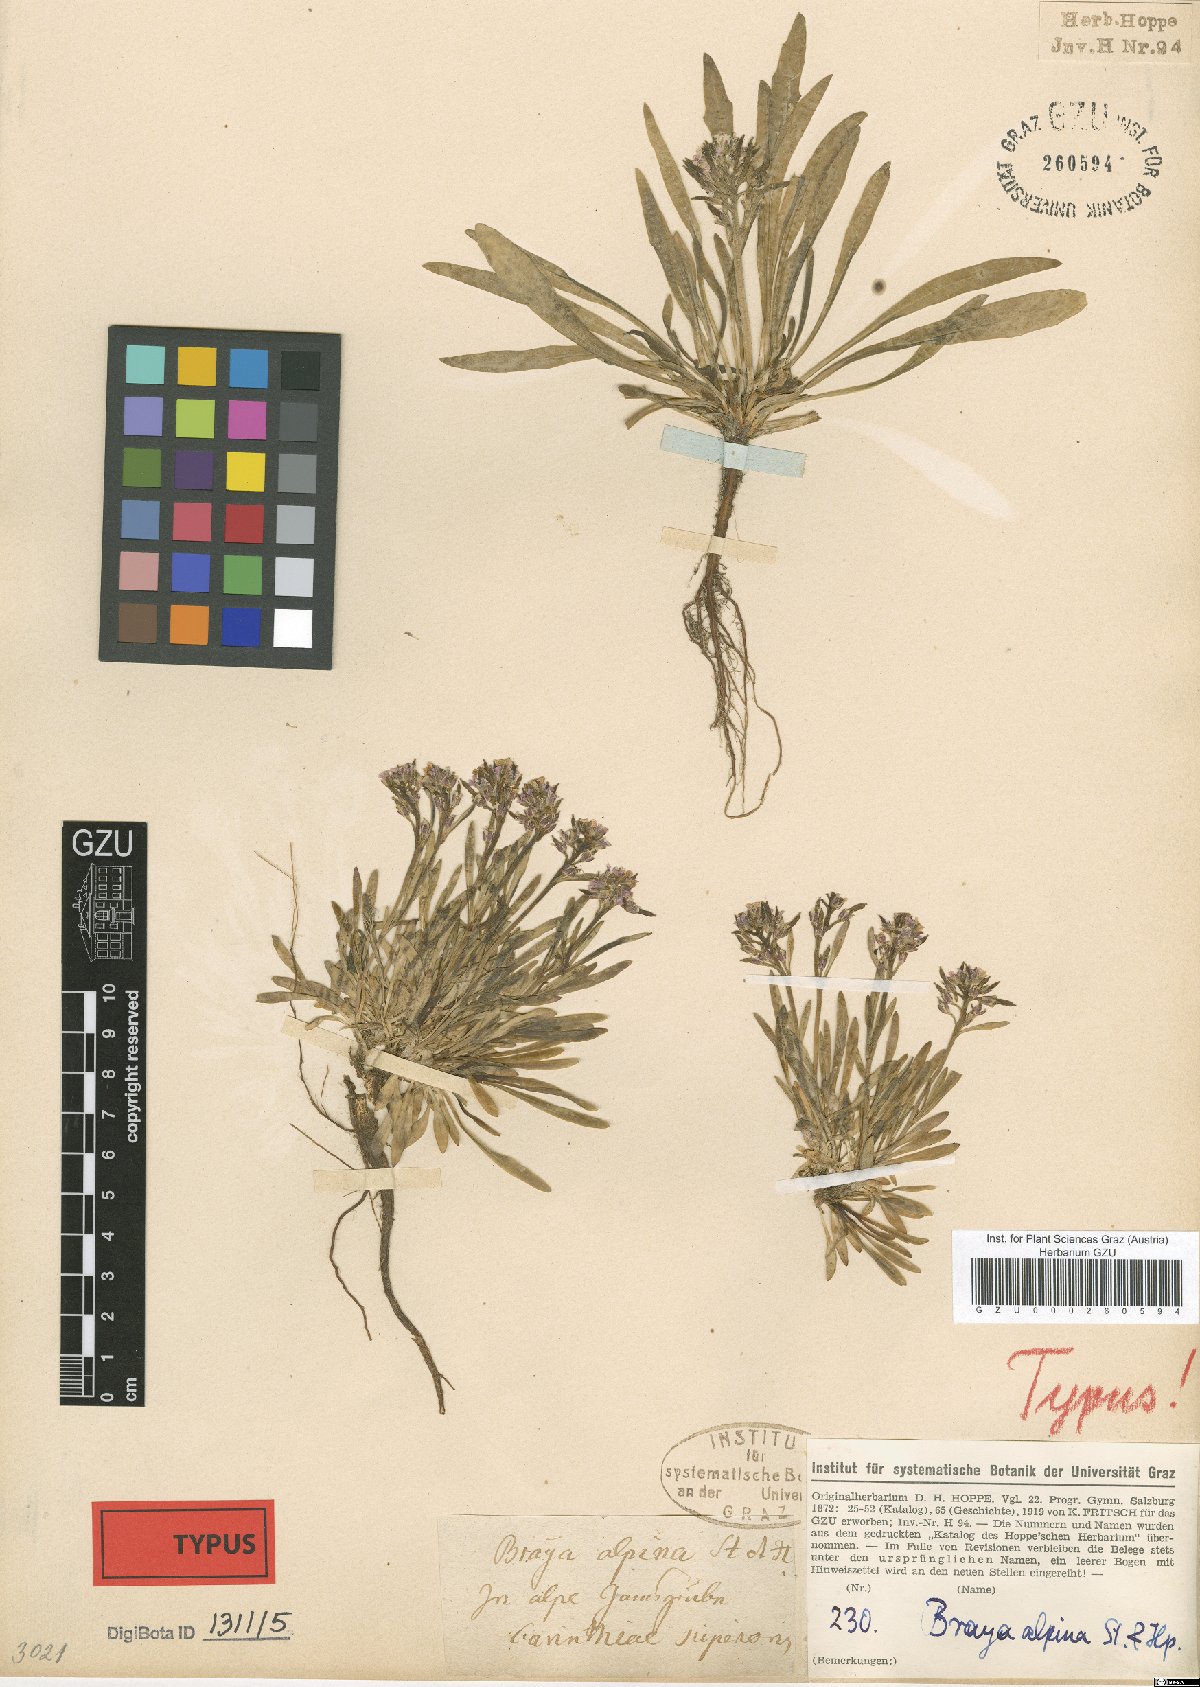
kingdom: Plantae
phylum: Tracheophyta
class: Magnoliopsida
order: Brassicales
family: Brassicaceae
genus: Braya
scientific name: Braya alpina
